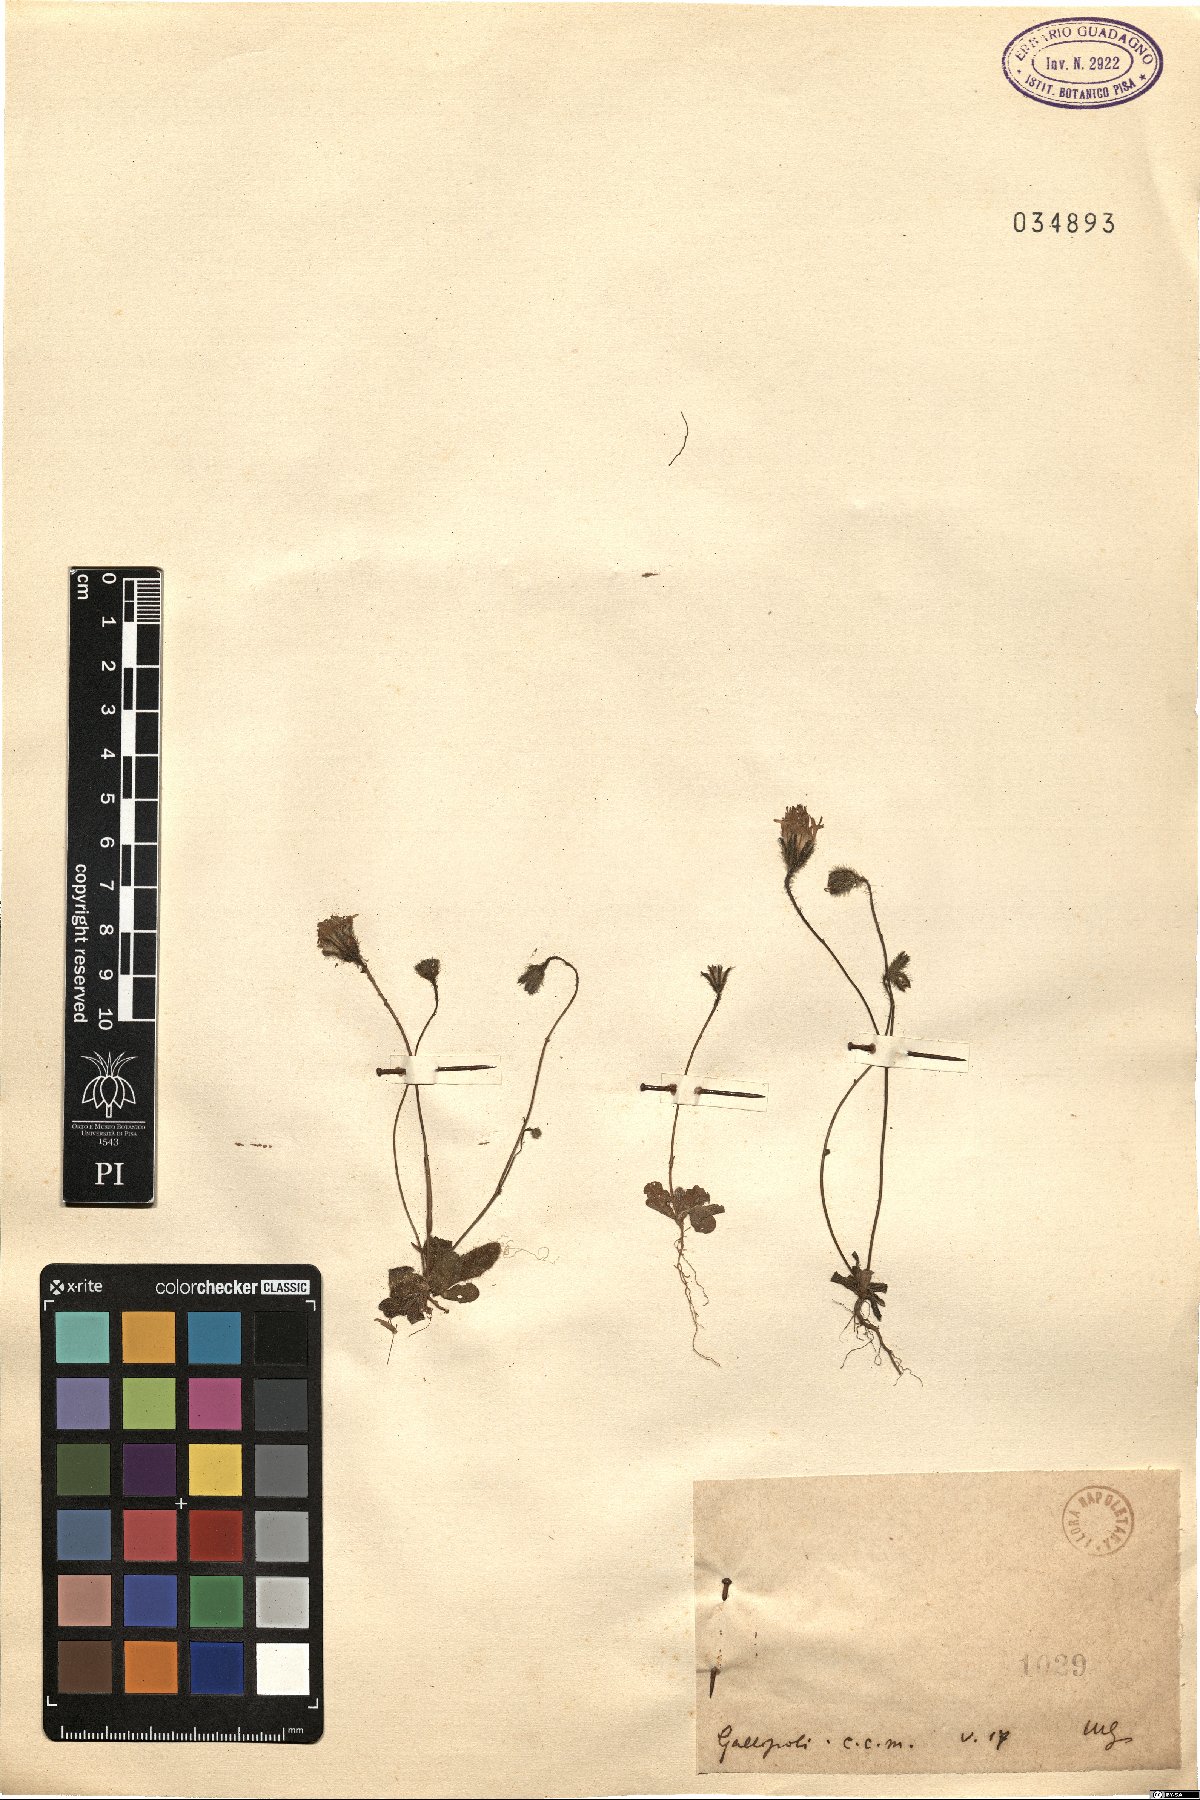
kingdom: Plantae
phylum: Tracheophyta
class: Magnoliopsida
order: Asterales
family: Asteraceae
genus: Hypochaeris
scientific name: Hypochaeris
